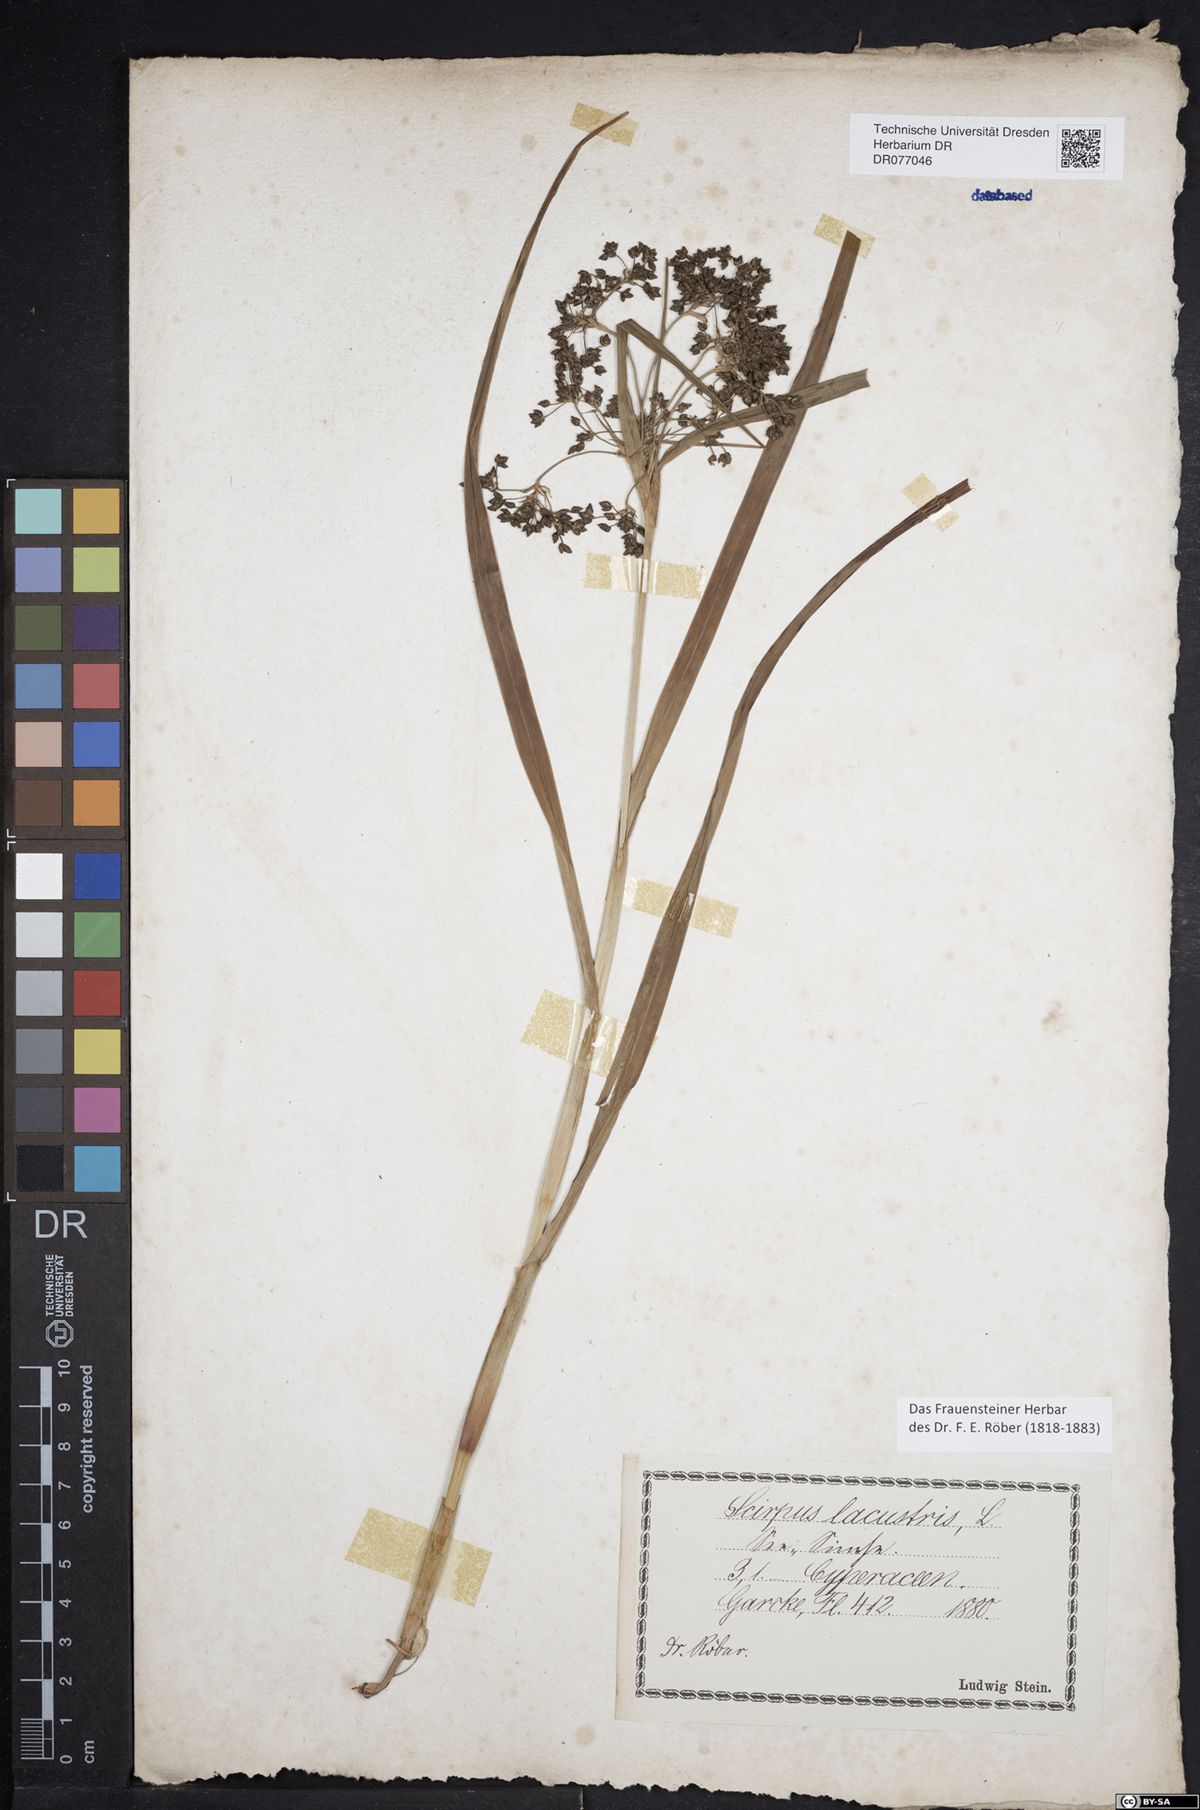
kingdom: Plantae
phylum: Tracheophyta
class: Liliopsida
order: Poales
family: Cyperaceae
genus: Scirpus
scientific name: Scirpus sylvaticus
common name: Wood club-rush
